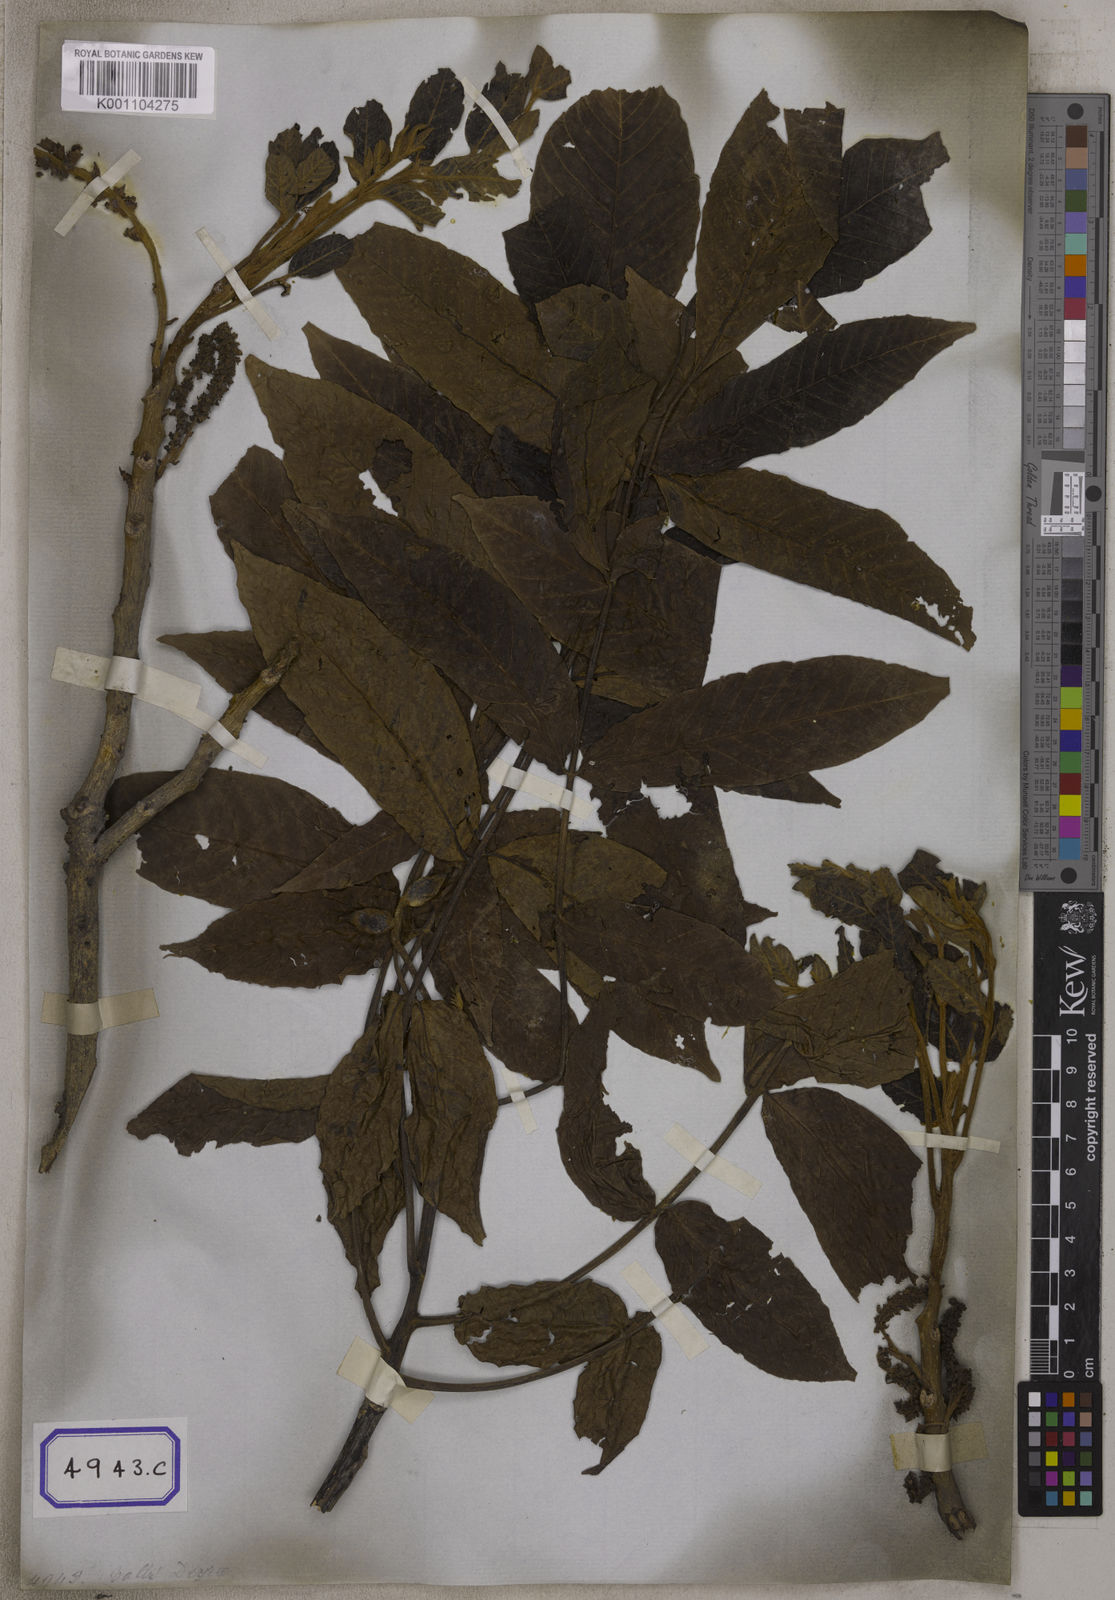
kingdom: Plantae
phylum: Tracheophyta
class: Magnoliopsida
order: Fagales
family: Juglandaceae
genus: Juglans
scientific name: Juglans regia
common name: Walnut
